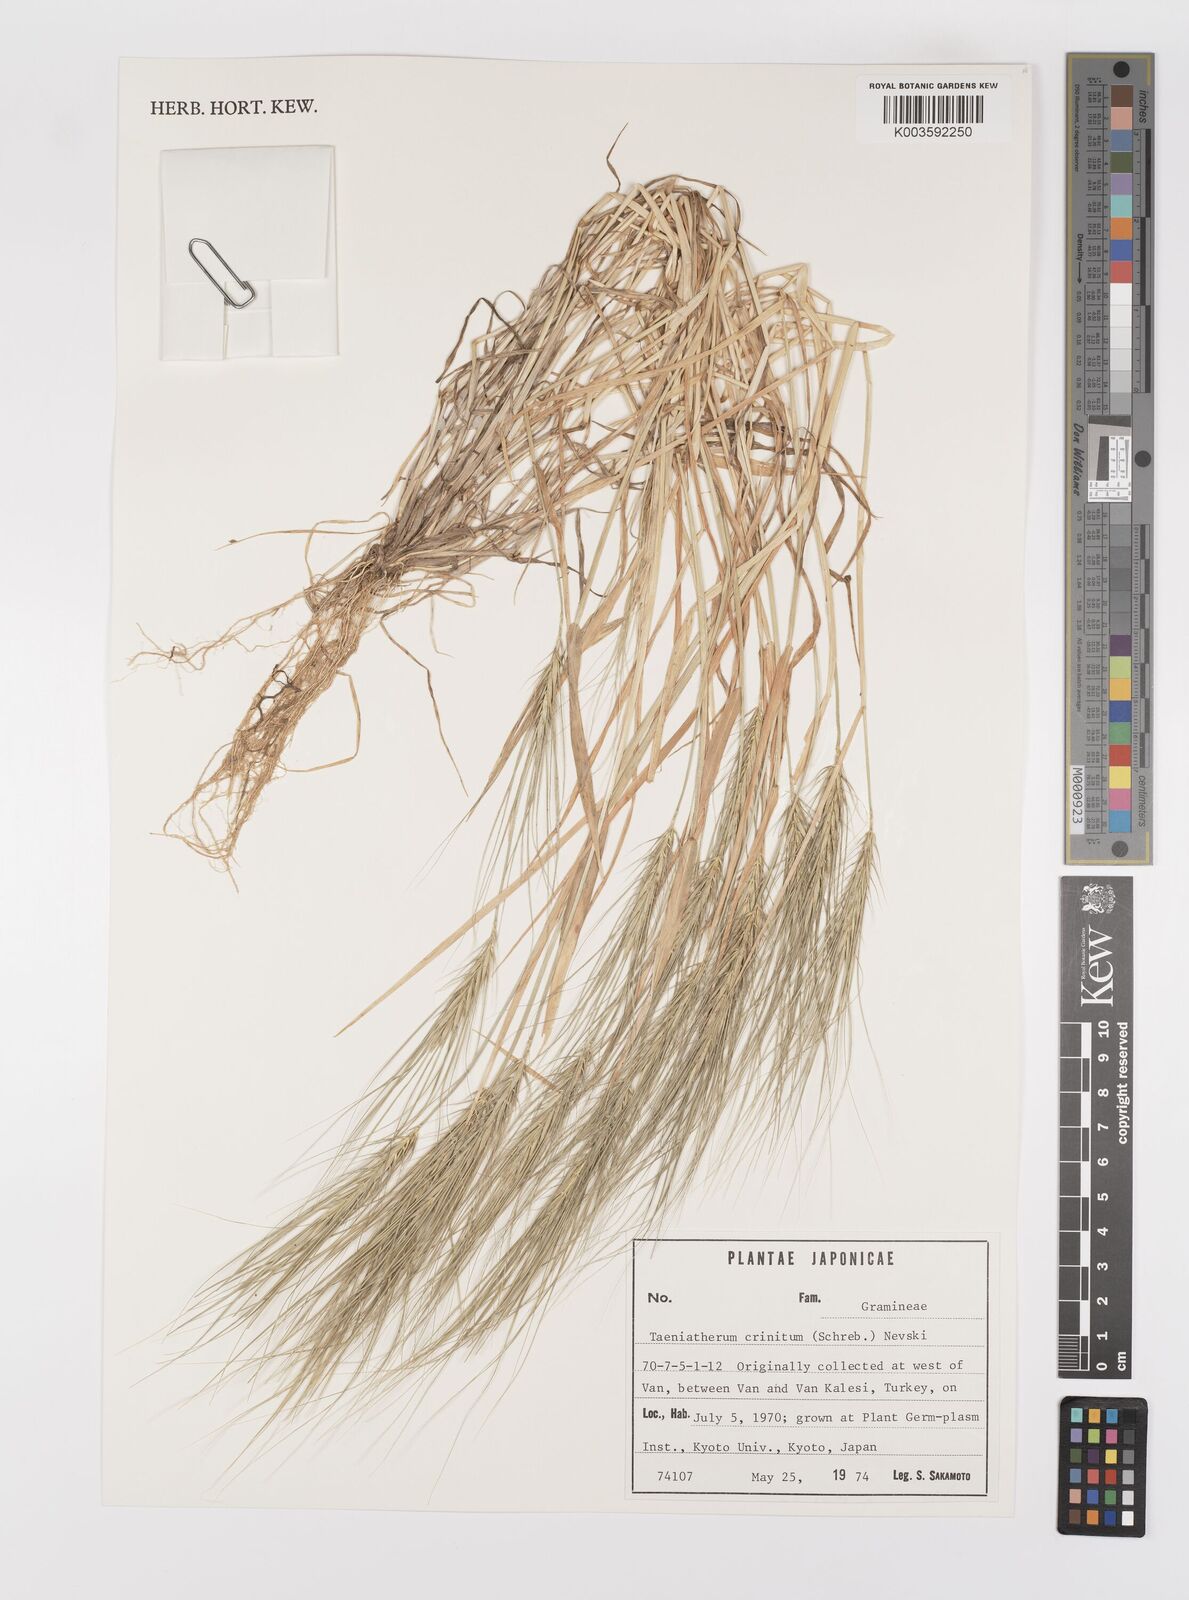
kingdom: Plantae
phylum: Tracheophyta
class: Liliopsida
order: Poales
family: Poaceae
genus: Taeniatherum
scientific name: Taeniatherum caput-medusae
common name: Medusahead
